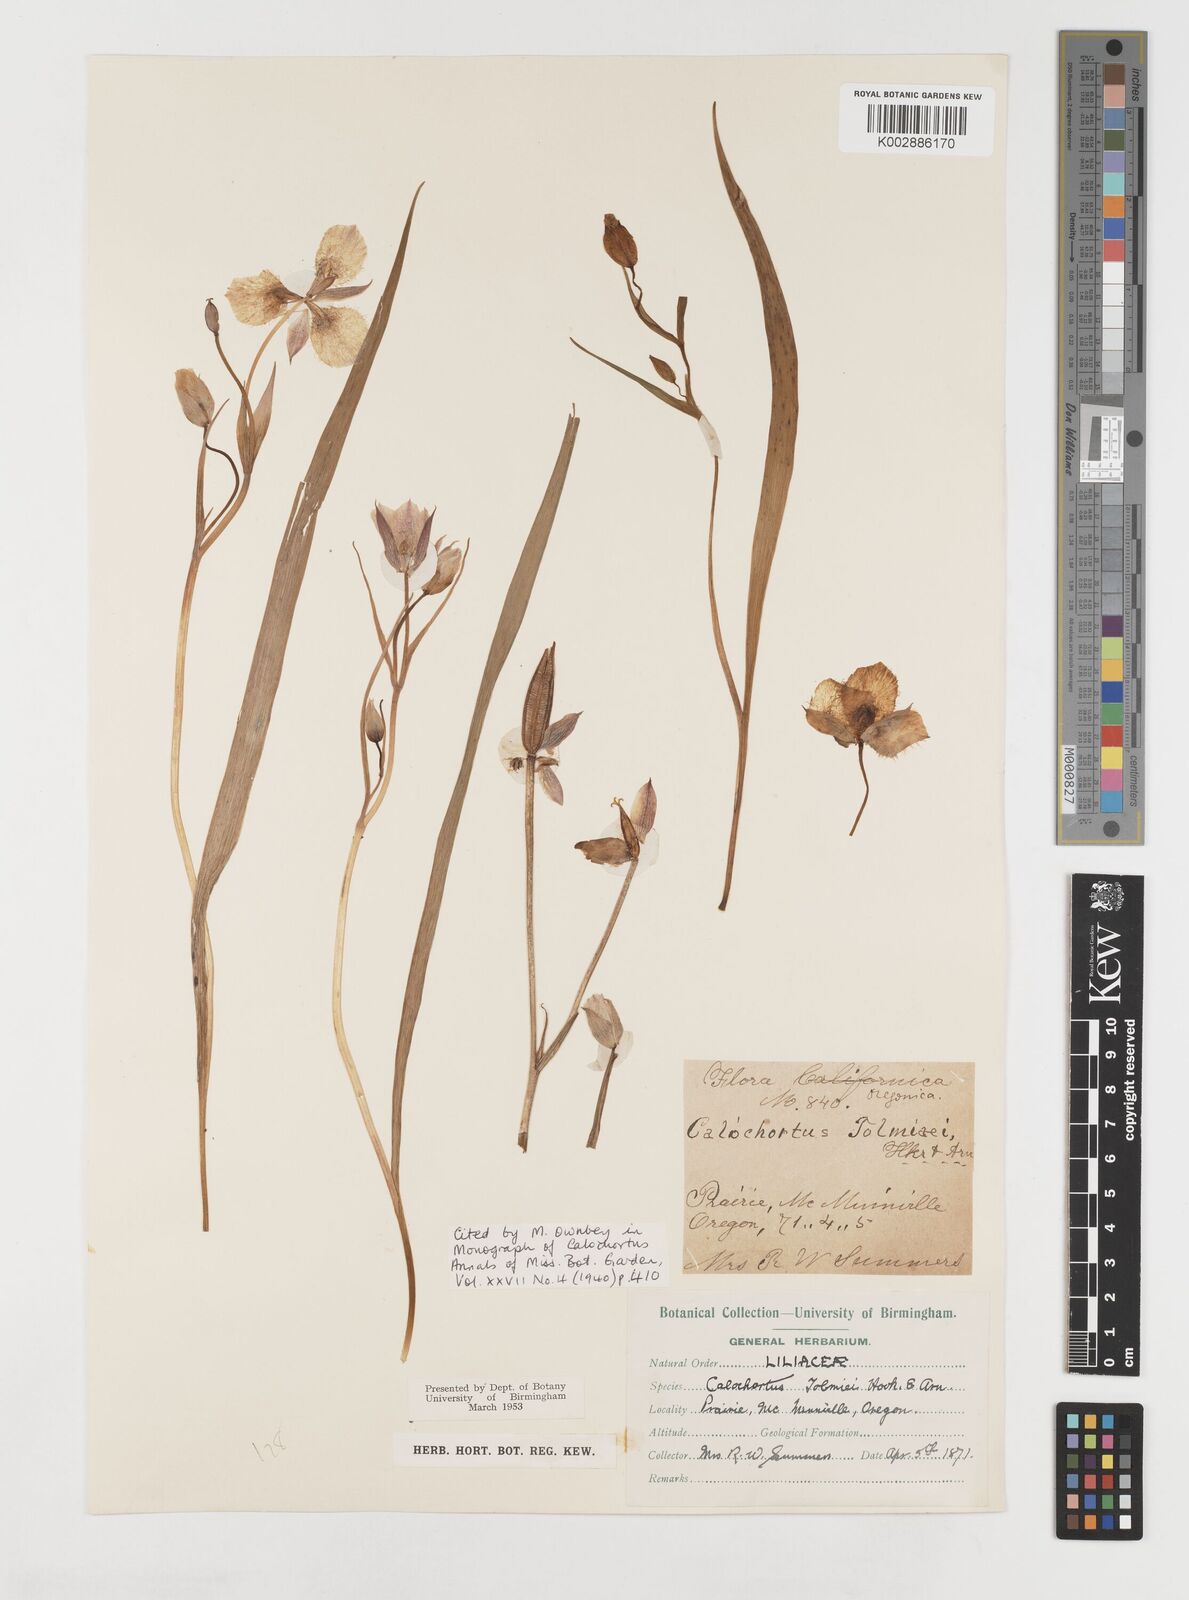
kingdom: Plantae
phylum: Tracheophyta
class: Liliopsida
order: Liliales
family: Liliaceae
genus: Calochortus
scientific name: Calochortus tolmiei
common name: Pussy-ears
